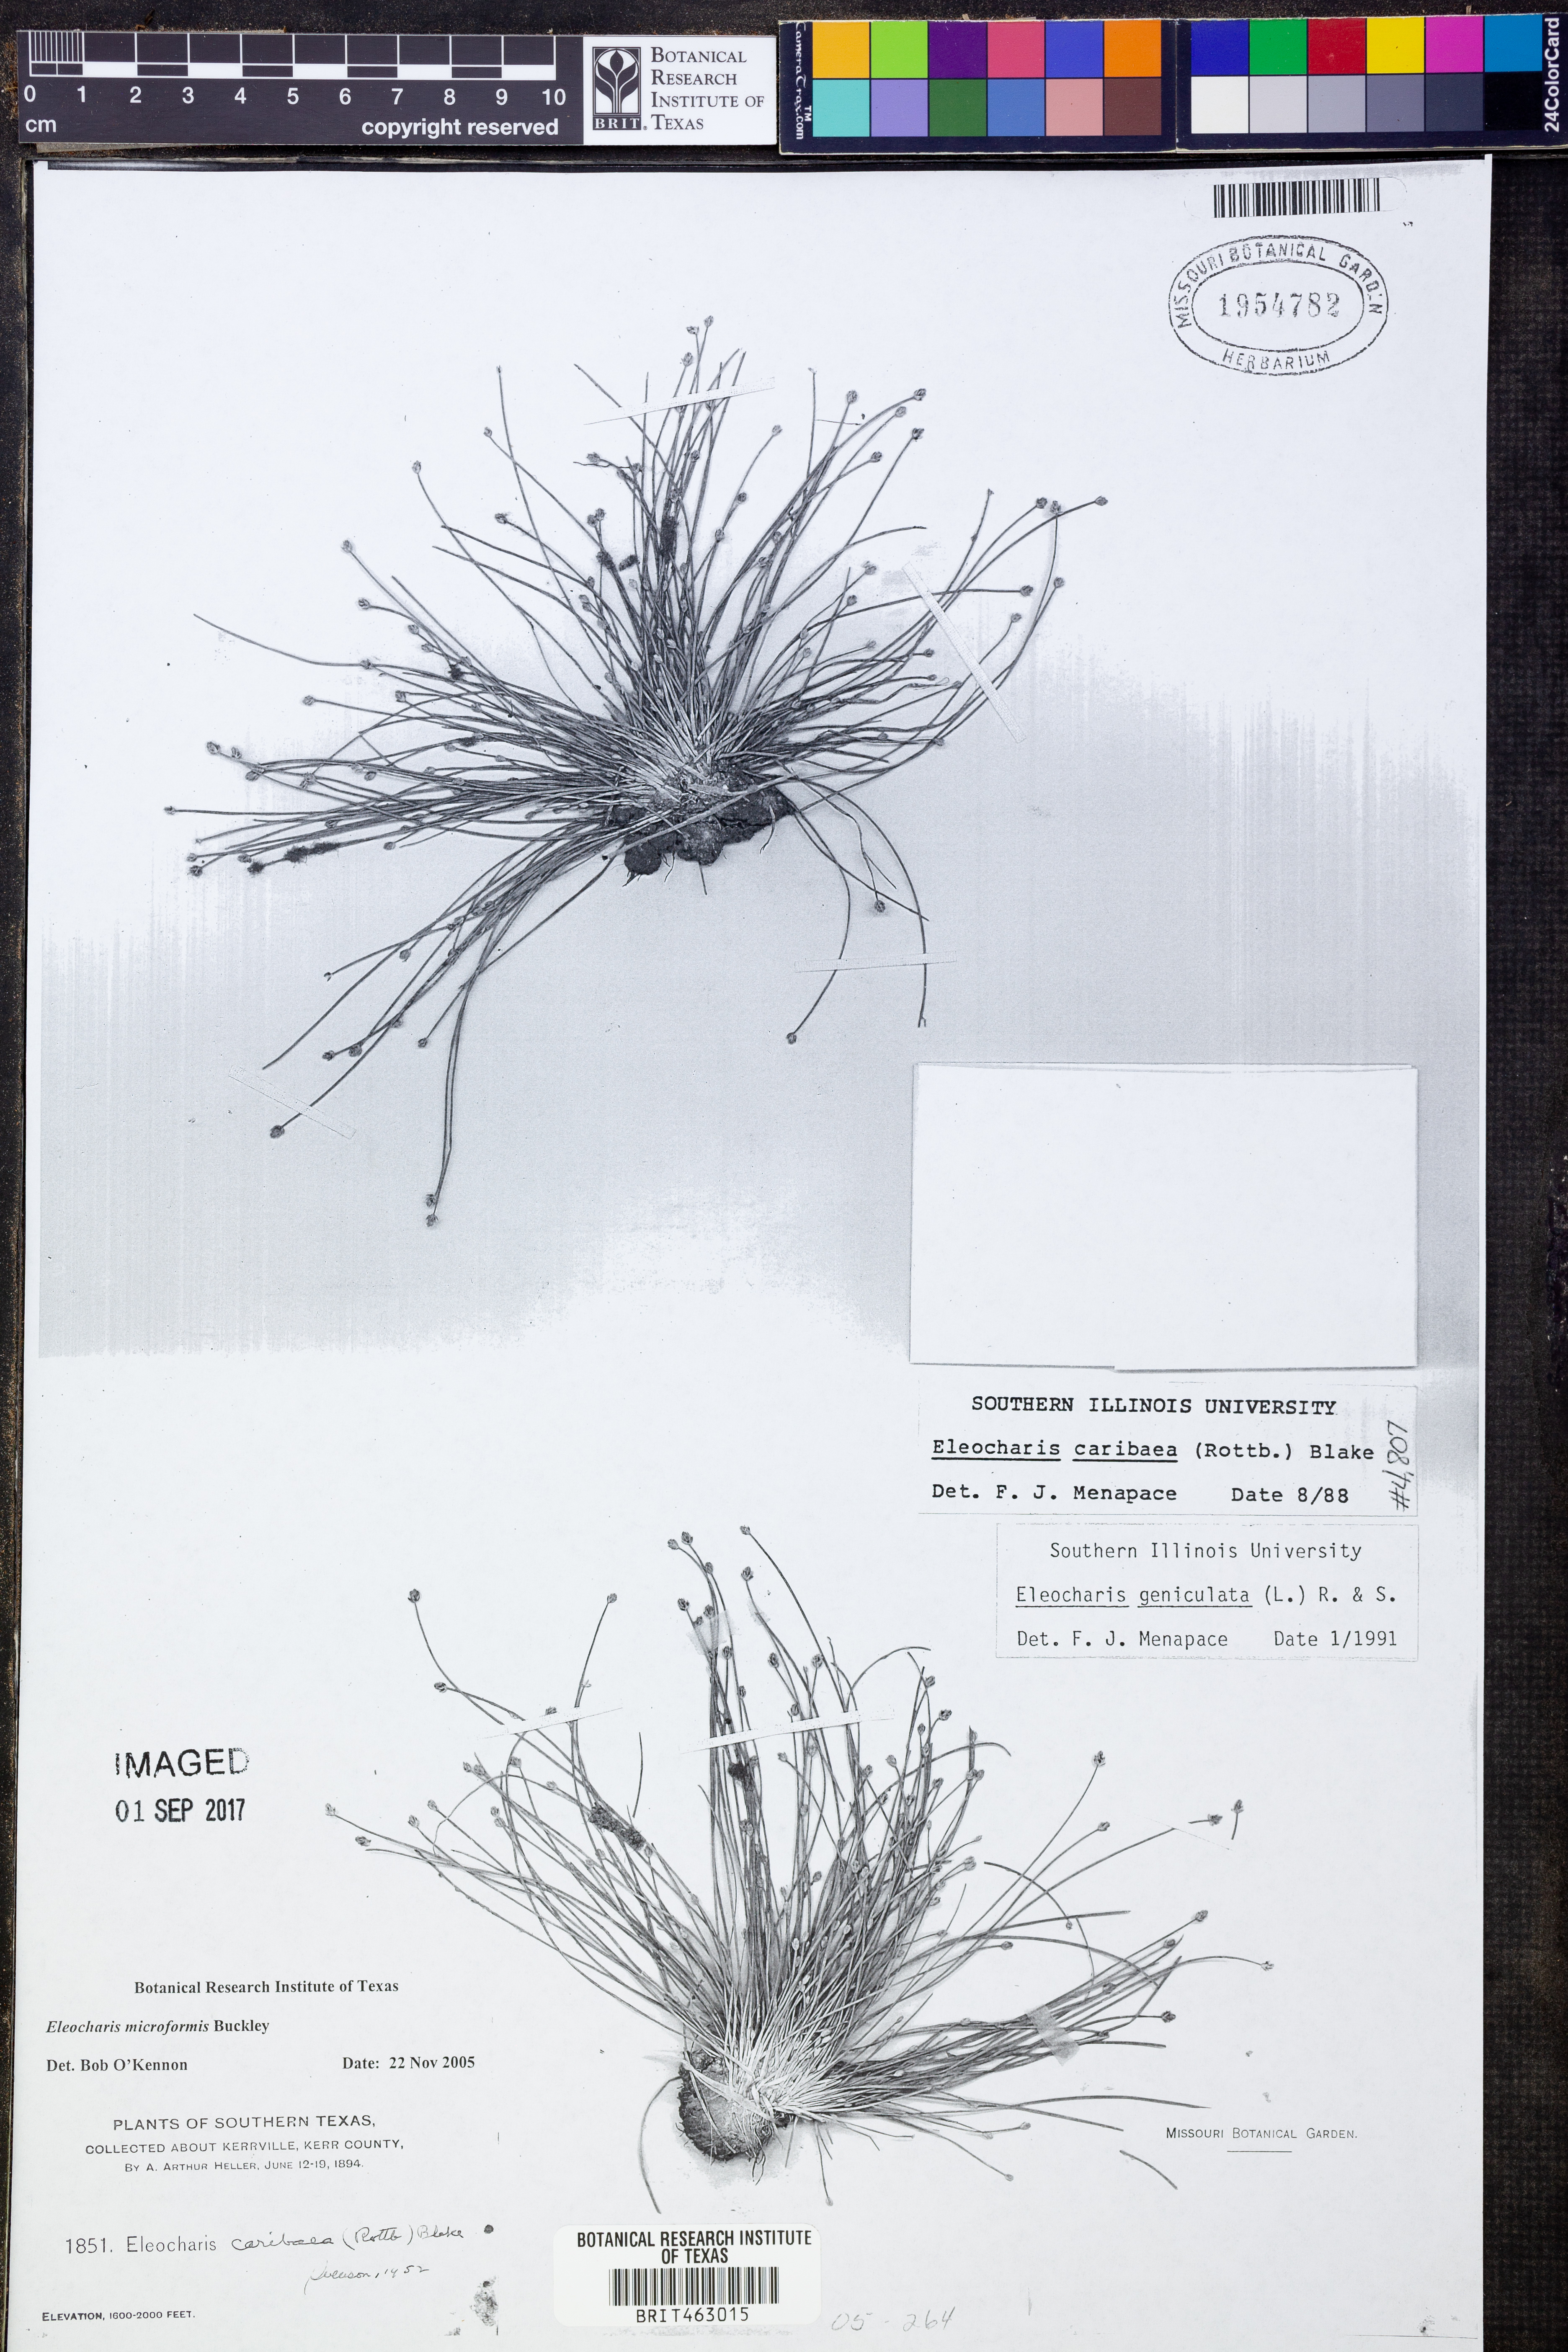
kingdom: Plantae
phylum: Tracheophyta
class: Liliopsida
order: Poales
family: Cyperaceae
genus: Eleocharis
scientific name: Eleocharis microformis
